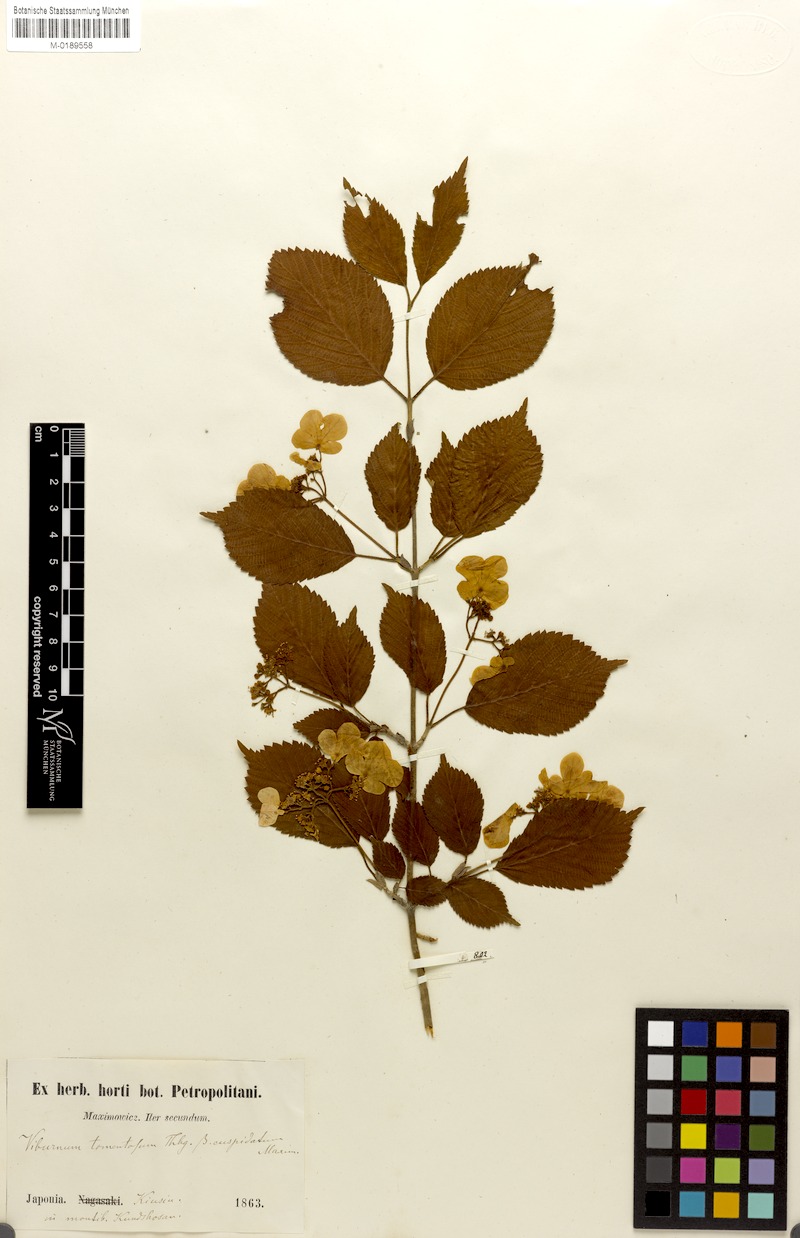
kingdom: Plantae
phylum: Tracheophyta
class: Magnoliopsida
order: Dipsacales
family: Viburnaceae
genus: Viburnum
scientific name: Viburnum plicatum
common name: Japanese snowball
